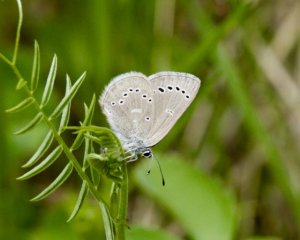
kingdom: Animalia
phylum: Arthropoda
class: Insecta
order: Lepidoptera
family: Lycaenidae
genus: Glaucopsyche
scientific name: Glaucopsyche lygdamus
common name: Silvery Blue
